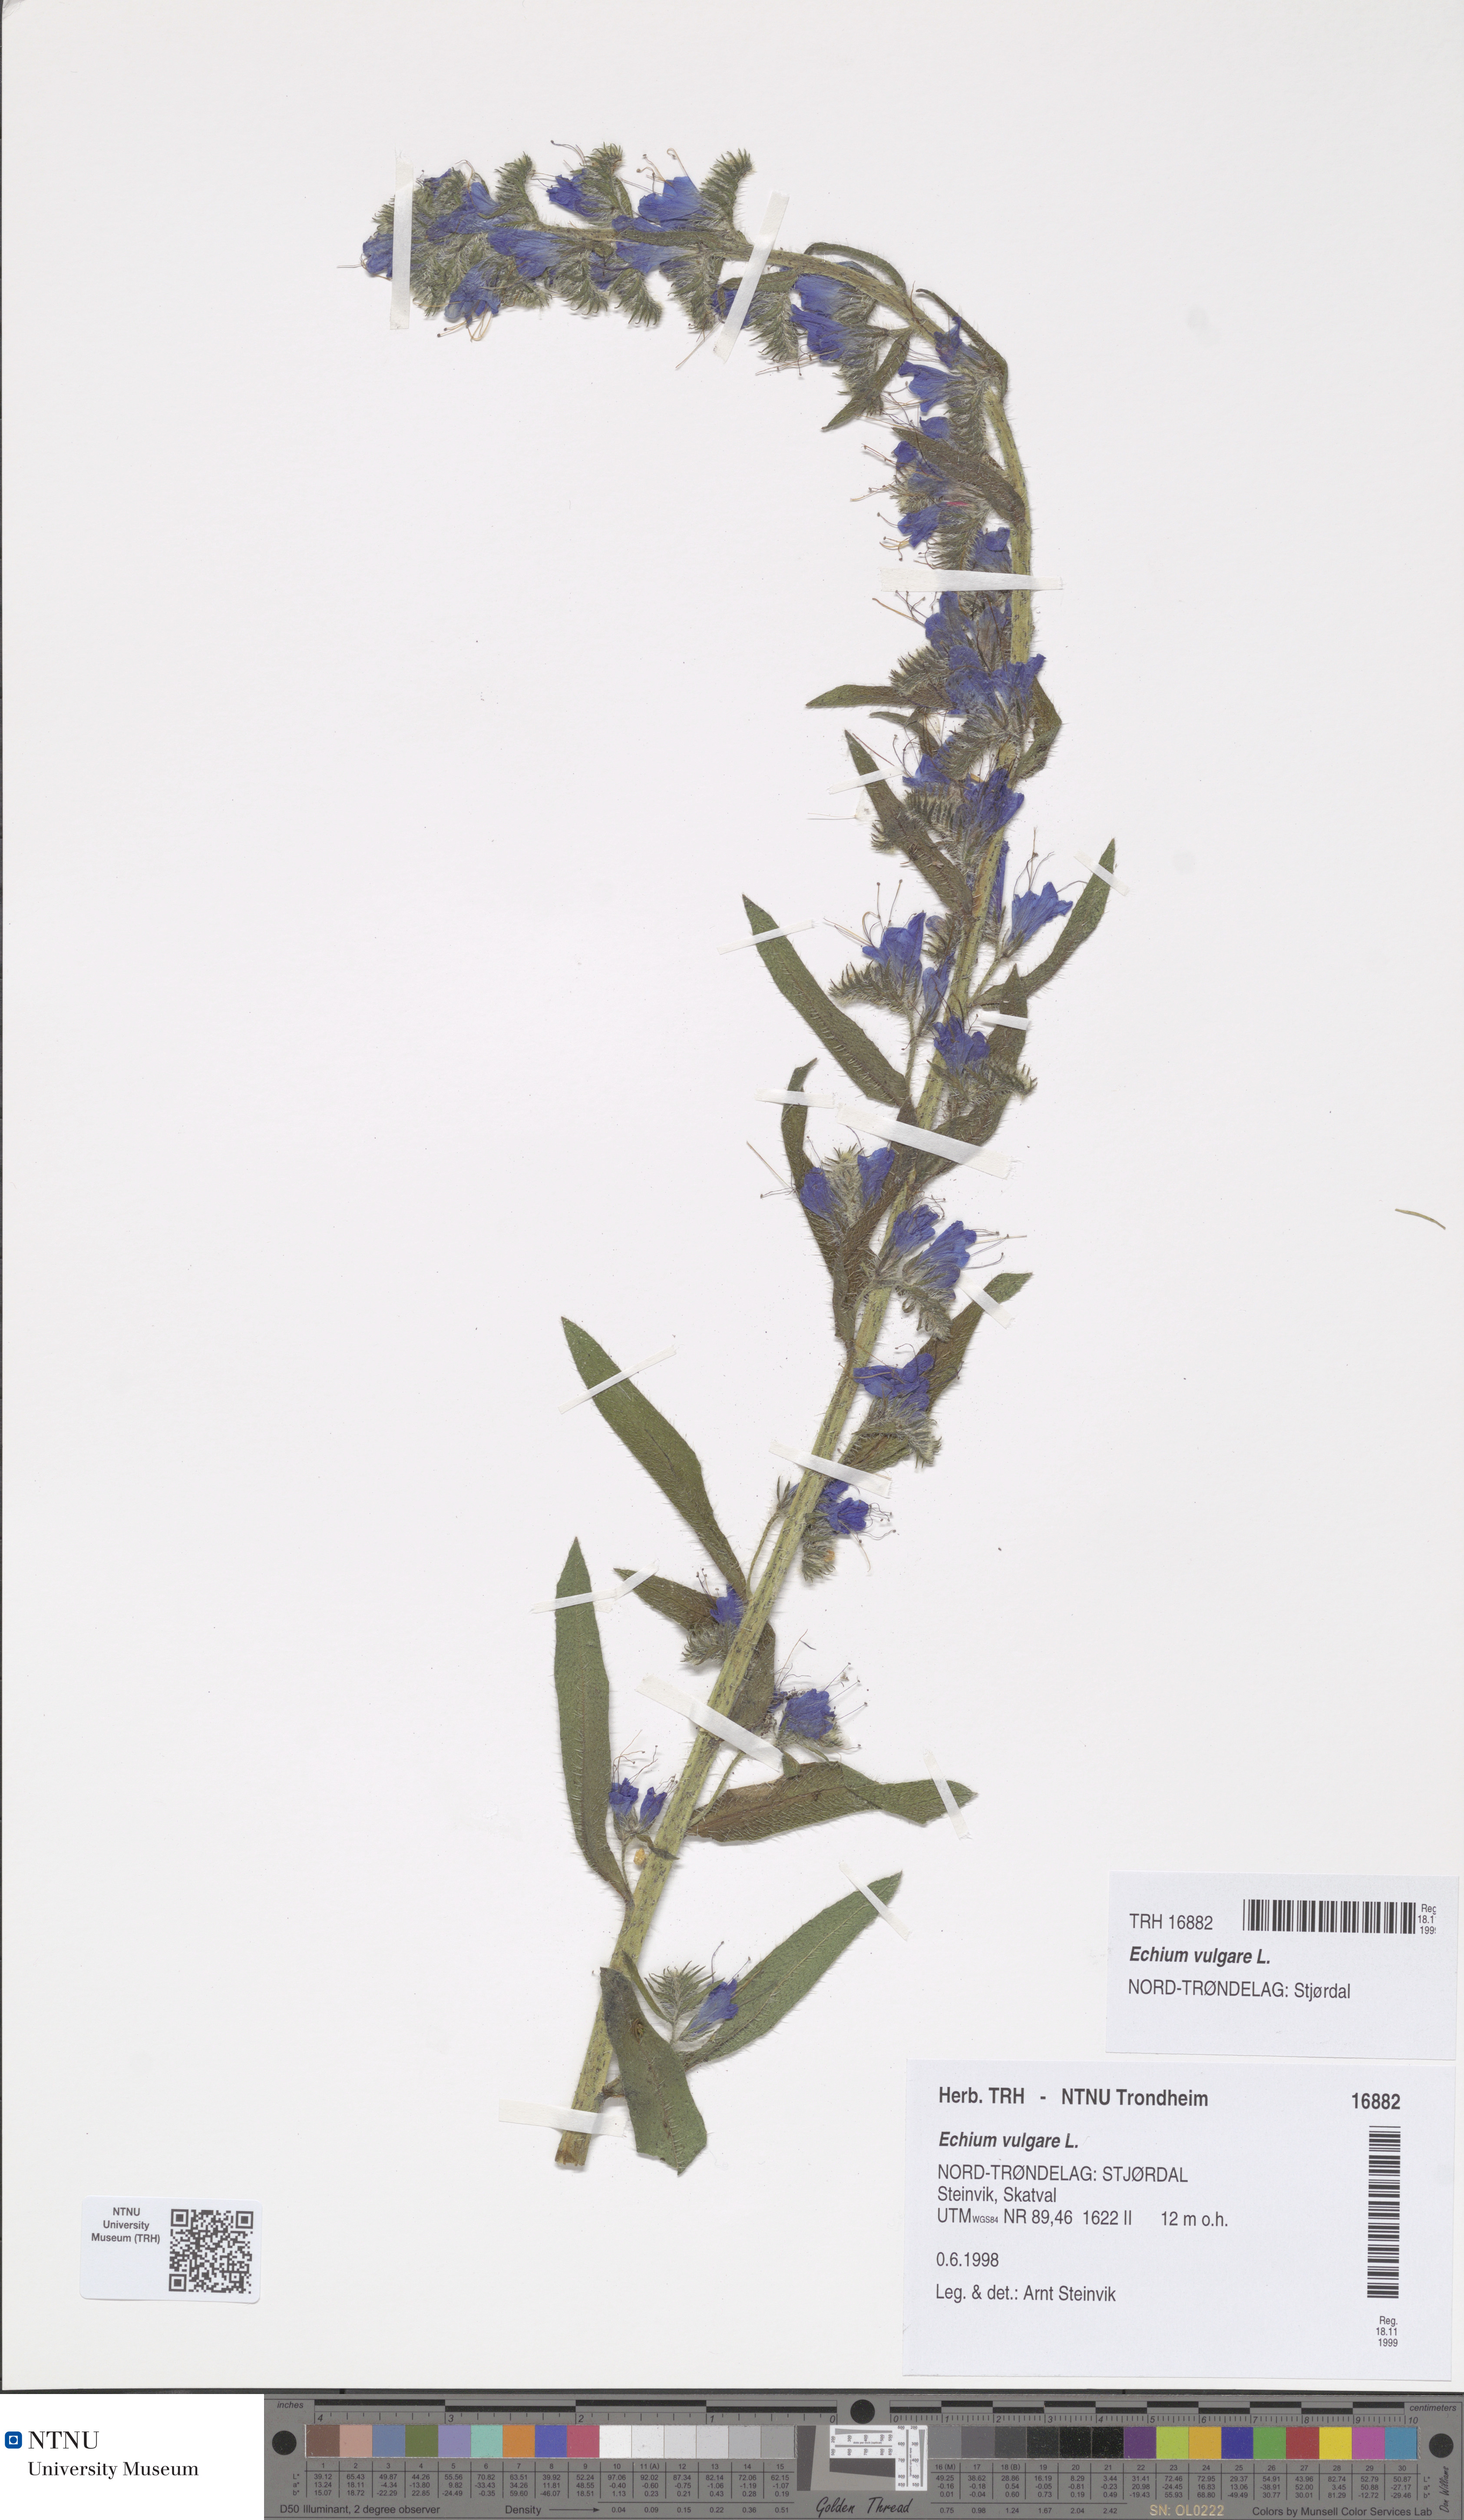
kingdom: Plantae
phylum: Tracheophyta
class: Magnoliopsida
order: Boraginales
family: Boraginaceae
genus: Echium
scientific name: Echium vulgare
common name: Common viper's bugloss
